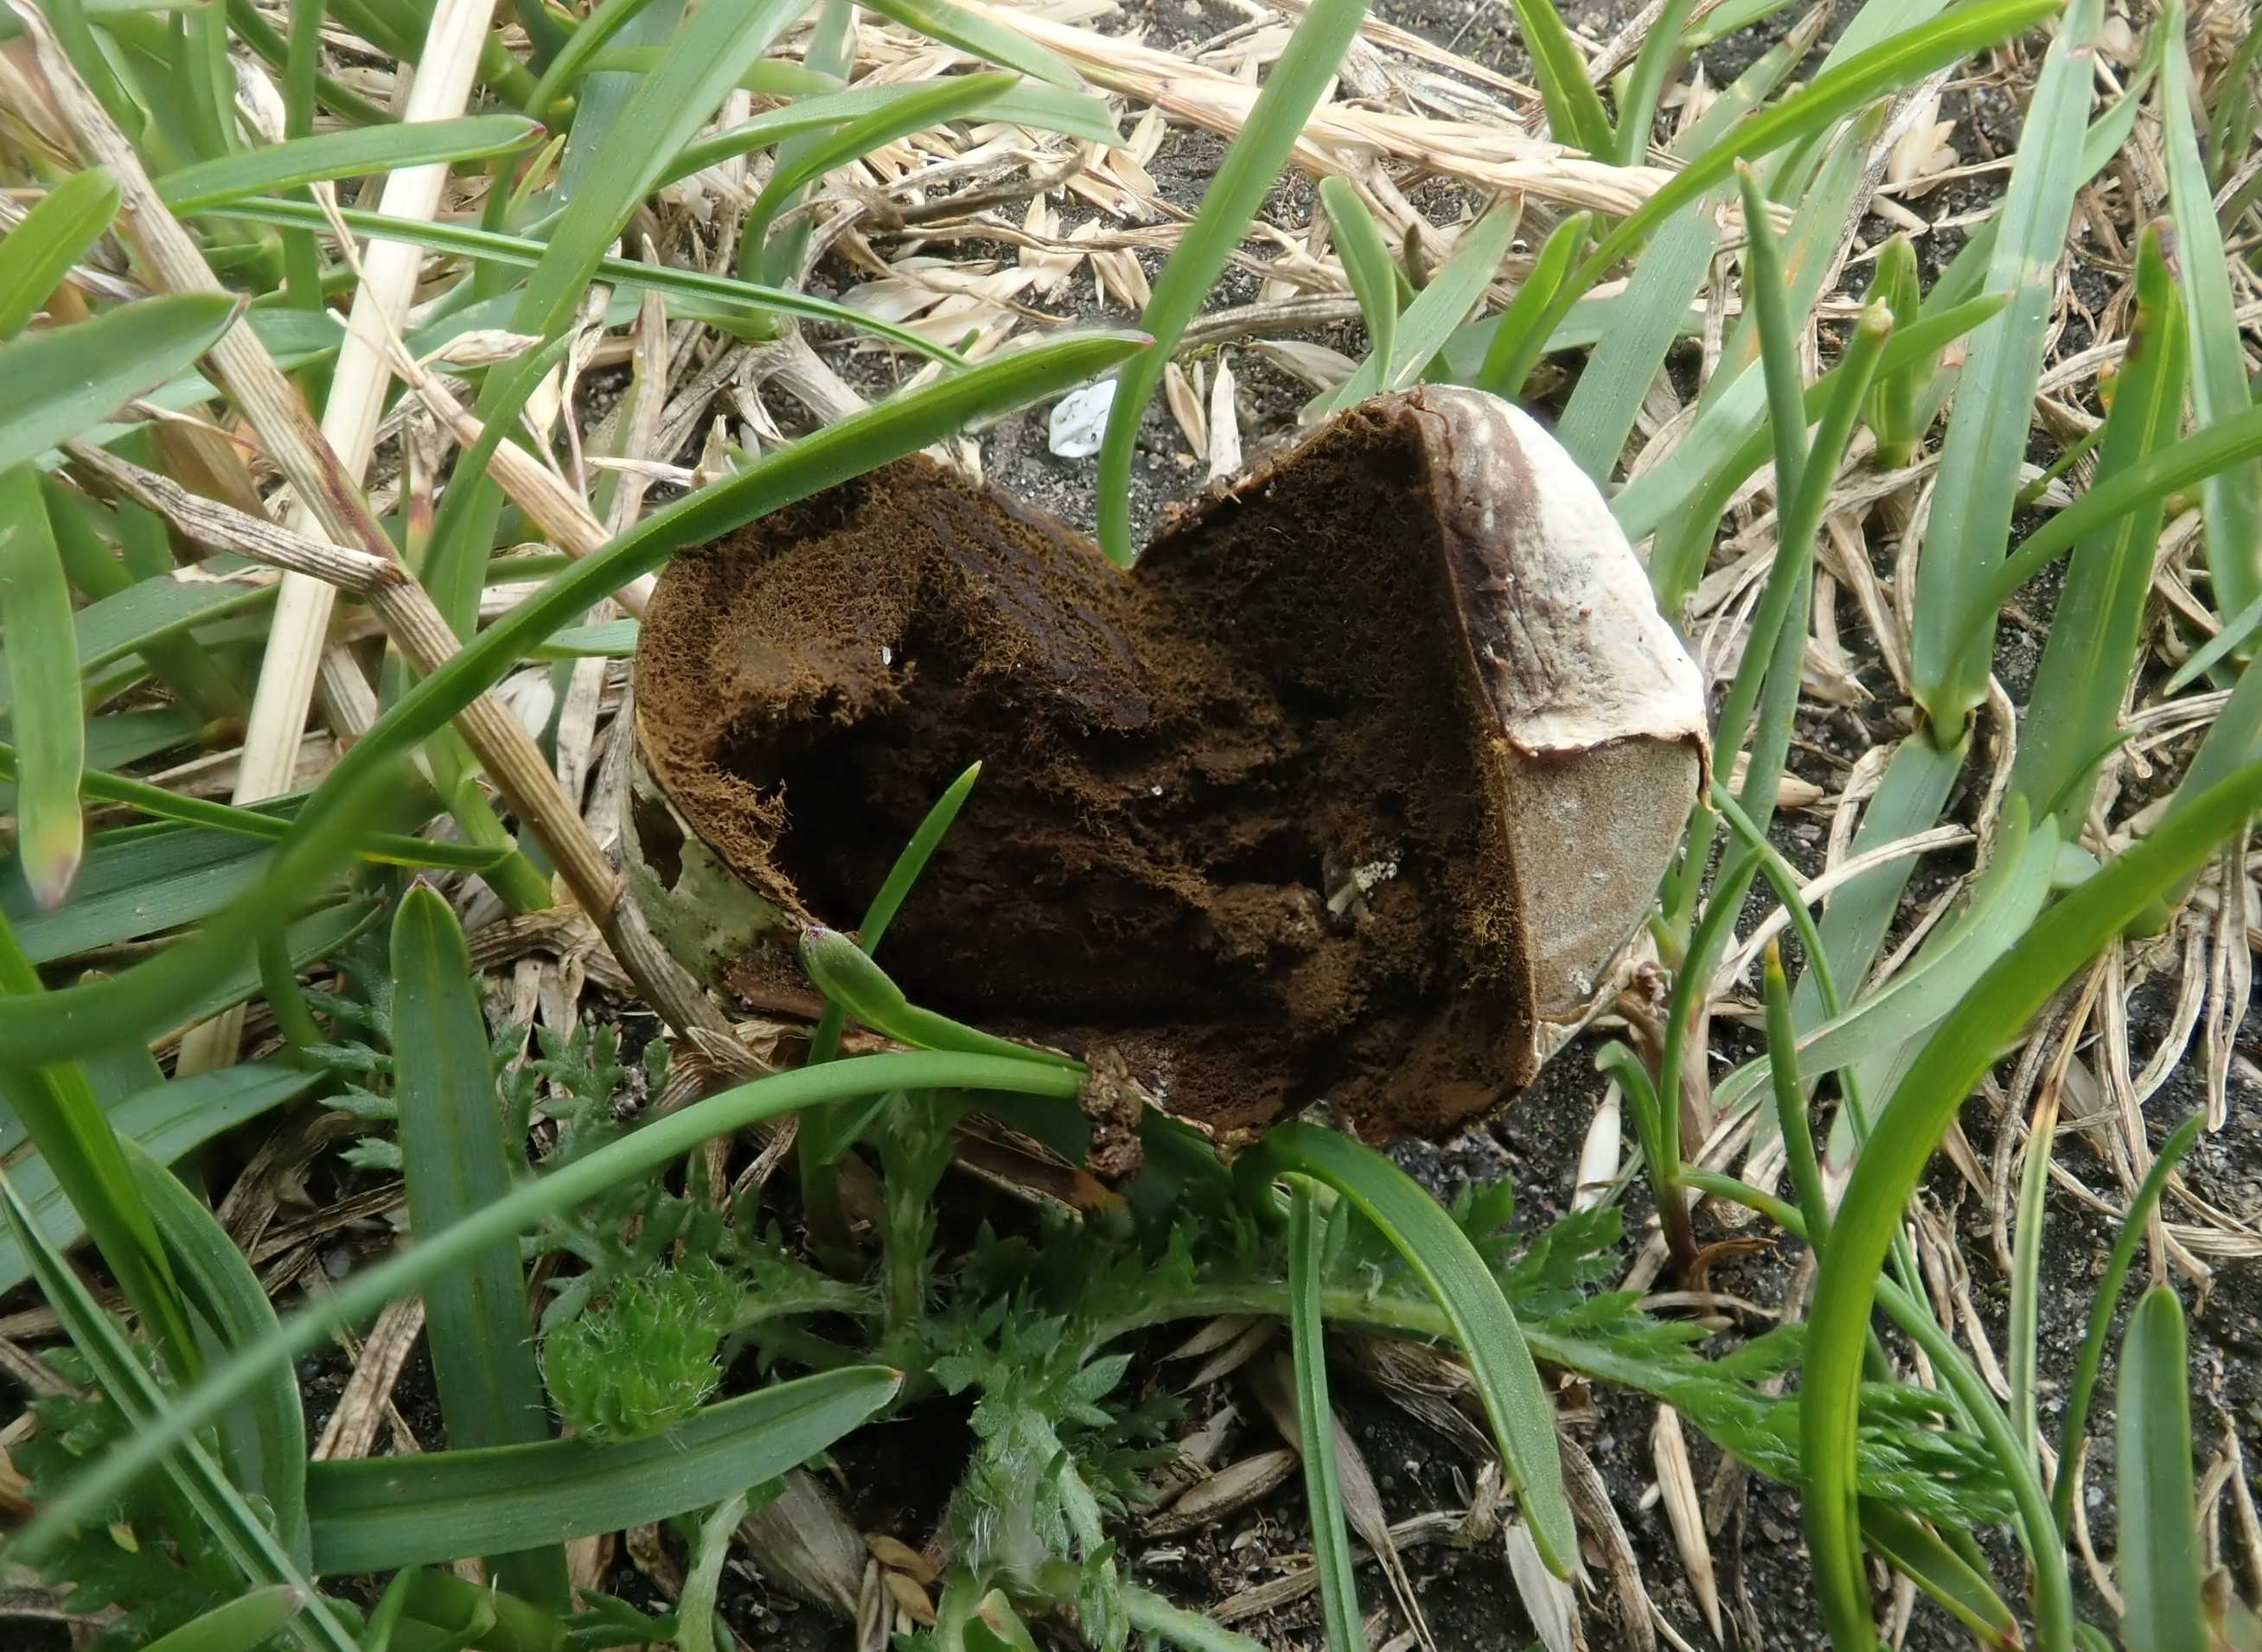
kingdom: Fungi
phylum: Basidiomycota
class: Agaricomycetes
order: Agaricales
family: Lycoperdaceae
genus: Bovista
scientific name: Bovista plumbea
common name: blygrå bovist
